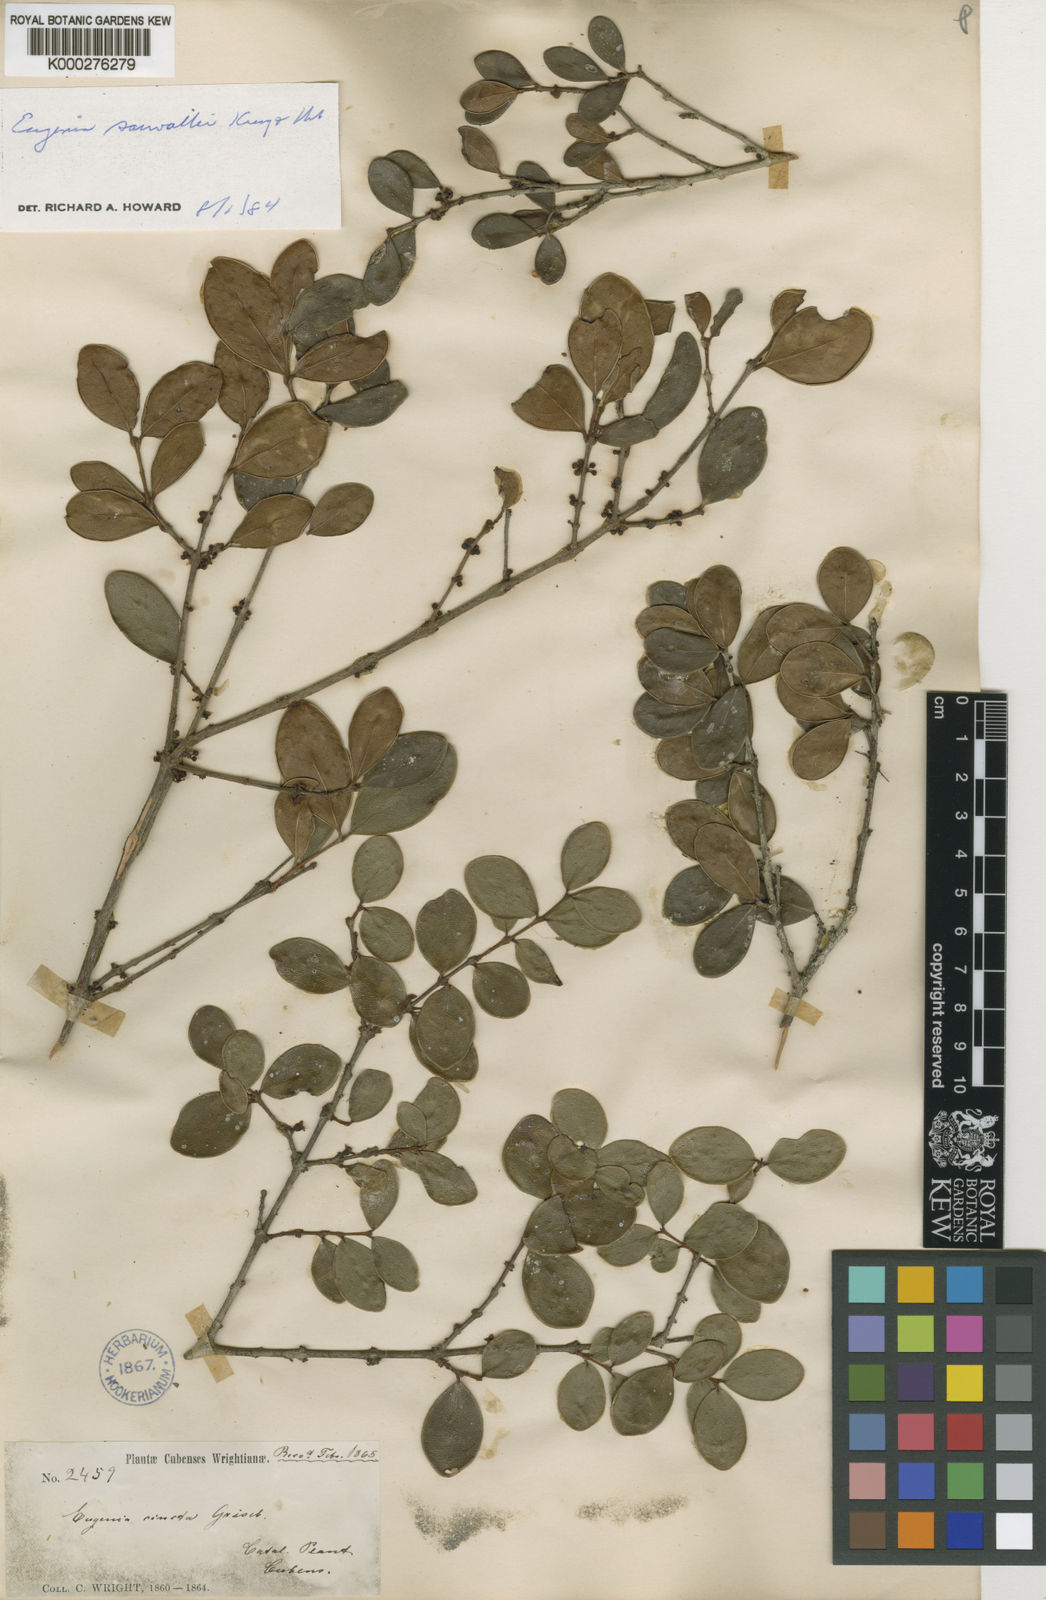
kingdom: Plantae
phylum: Tracheophyta
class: Magnoliopsida
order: Myrtales
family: Myrtaceae
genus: Eugenia
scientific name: Eugenia cincta
